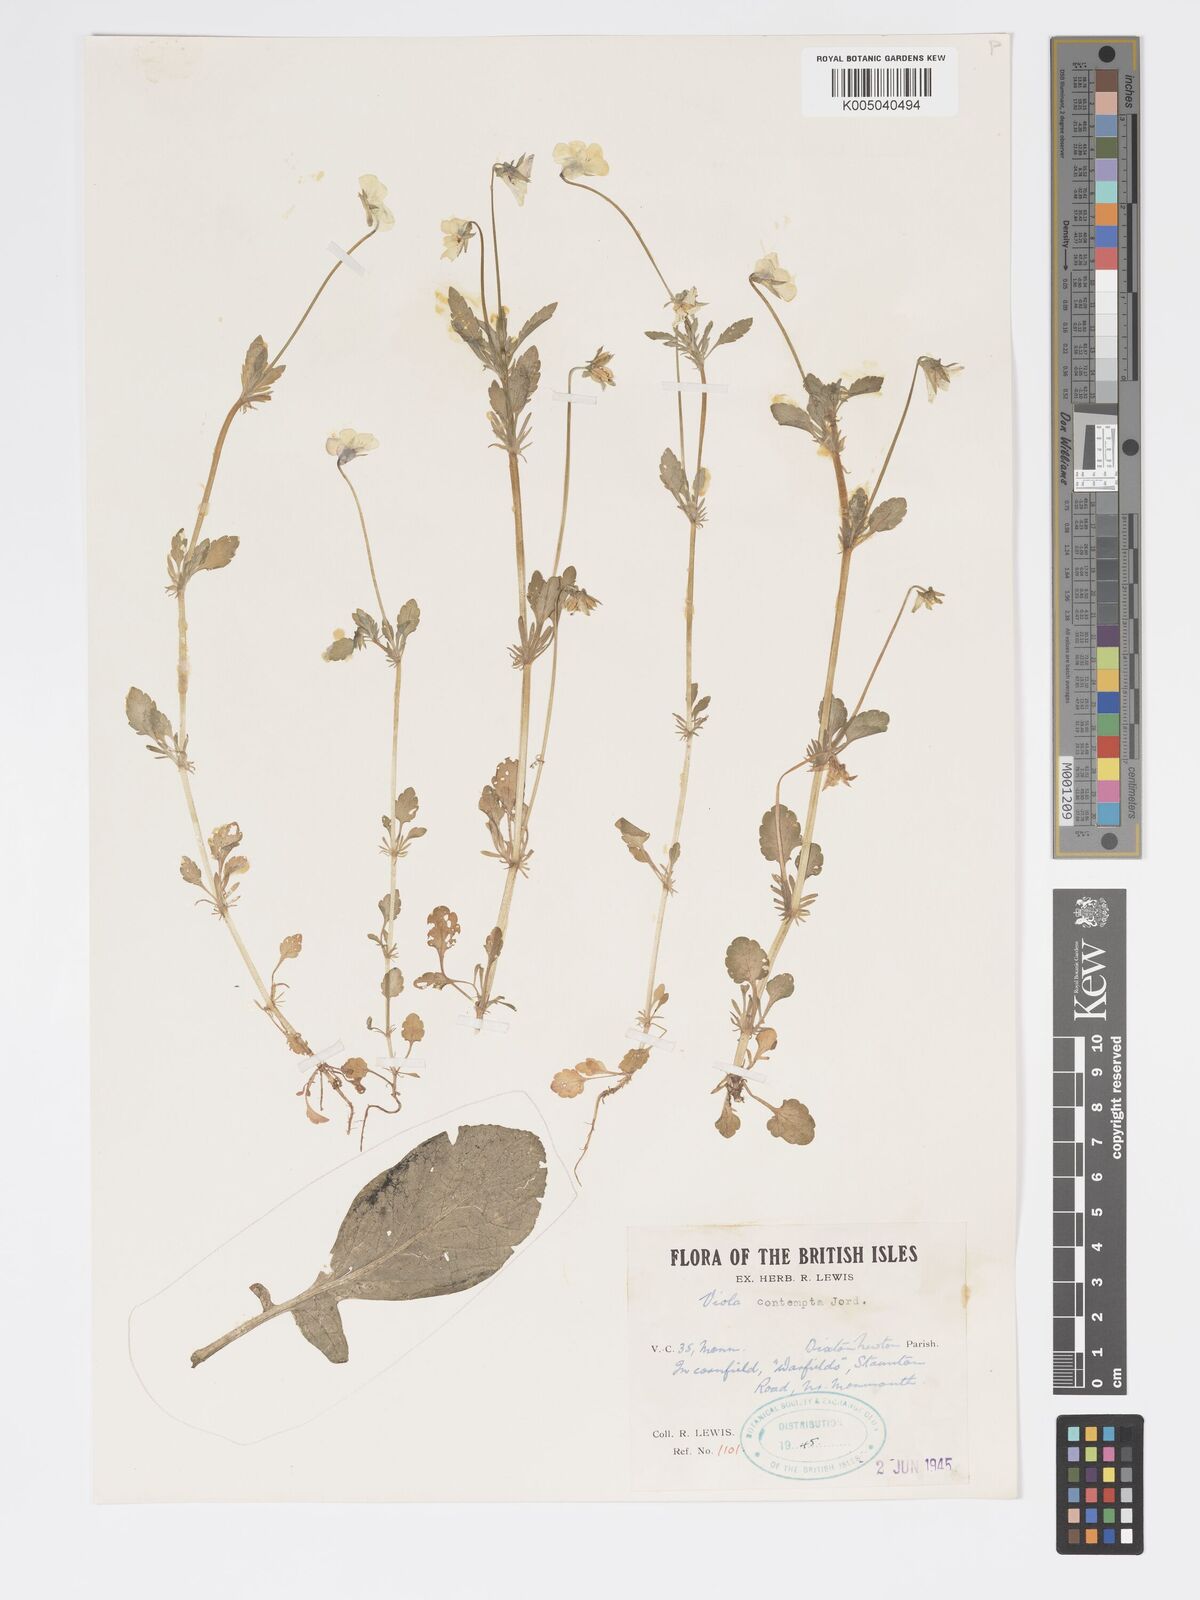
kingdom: Plantae
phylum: Tracheophyta
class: Magnoliopsida
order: Malpighiales
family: Violaceae
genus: Viola
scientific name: Viola arvensis
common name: Field pansy
